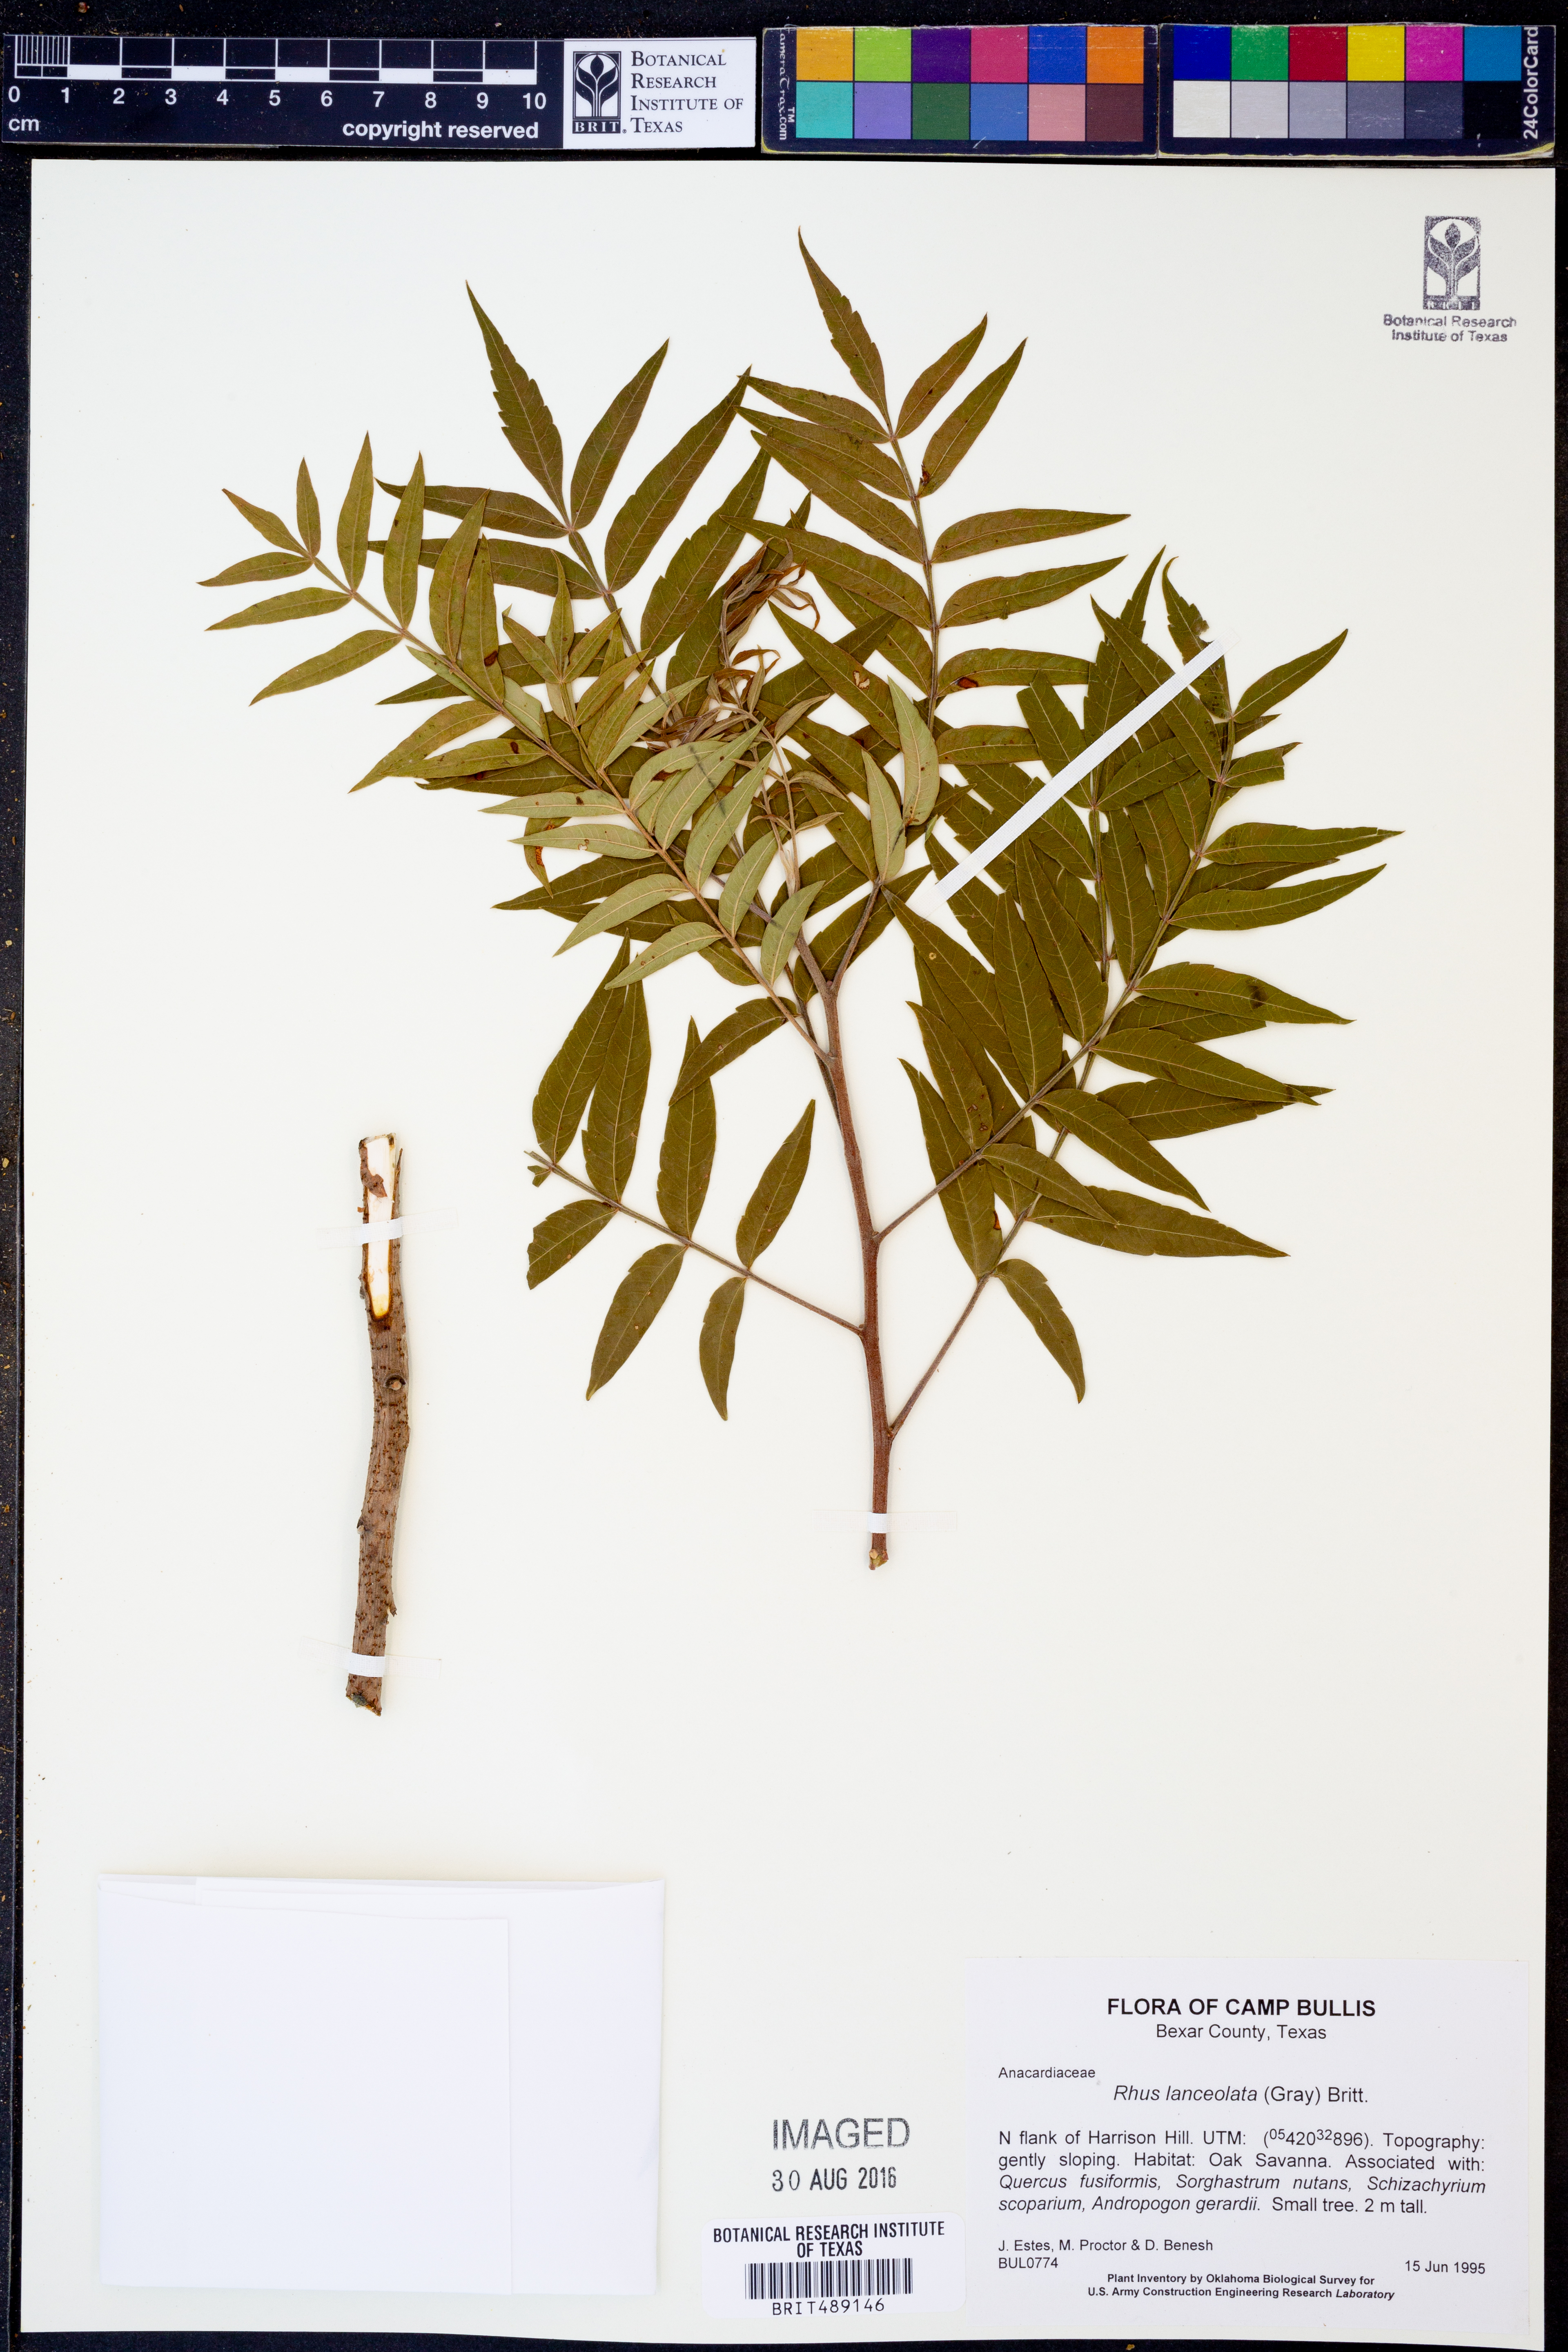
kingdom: Plantae
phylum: Tracheophyta
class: Magnoliopsida
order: Sapindales
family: Anacardiaceae
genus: Rhus
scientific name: Rhus lanceolata
